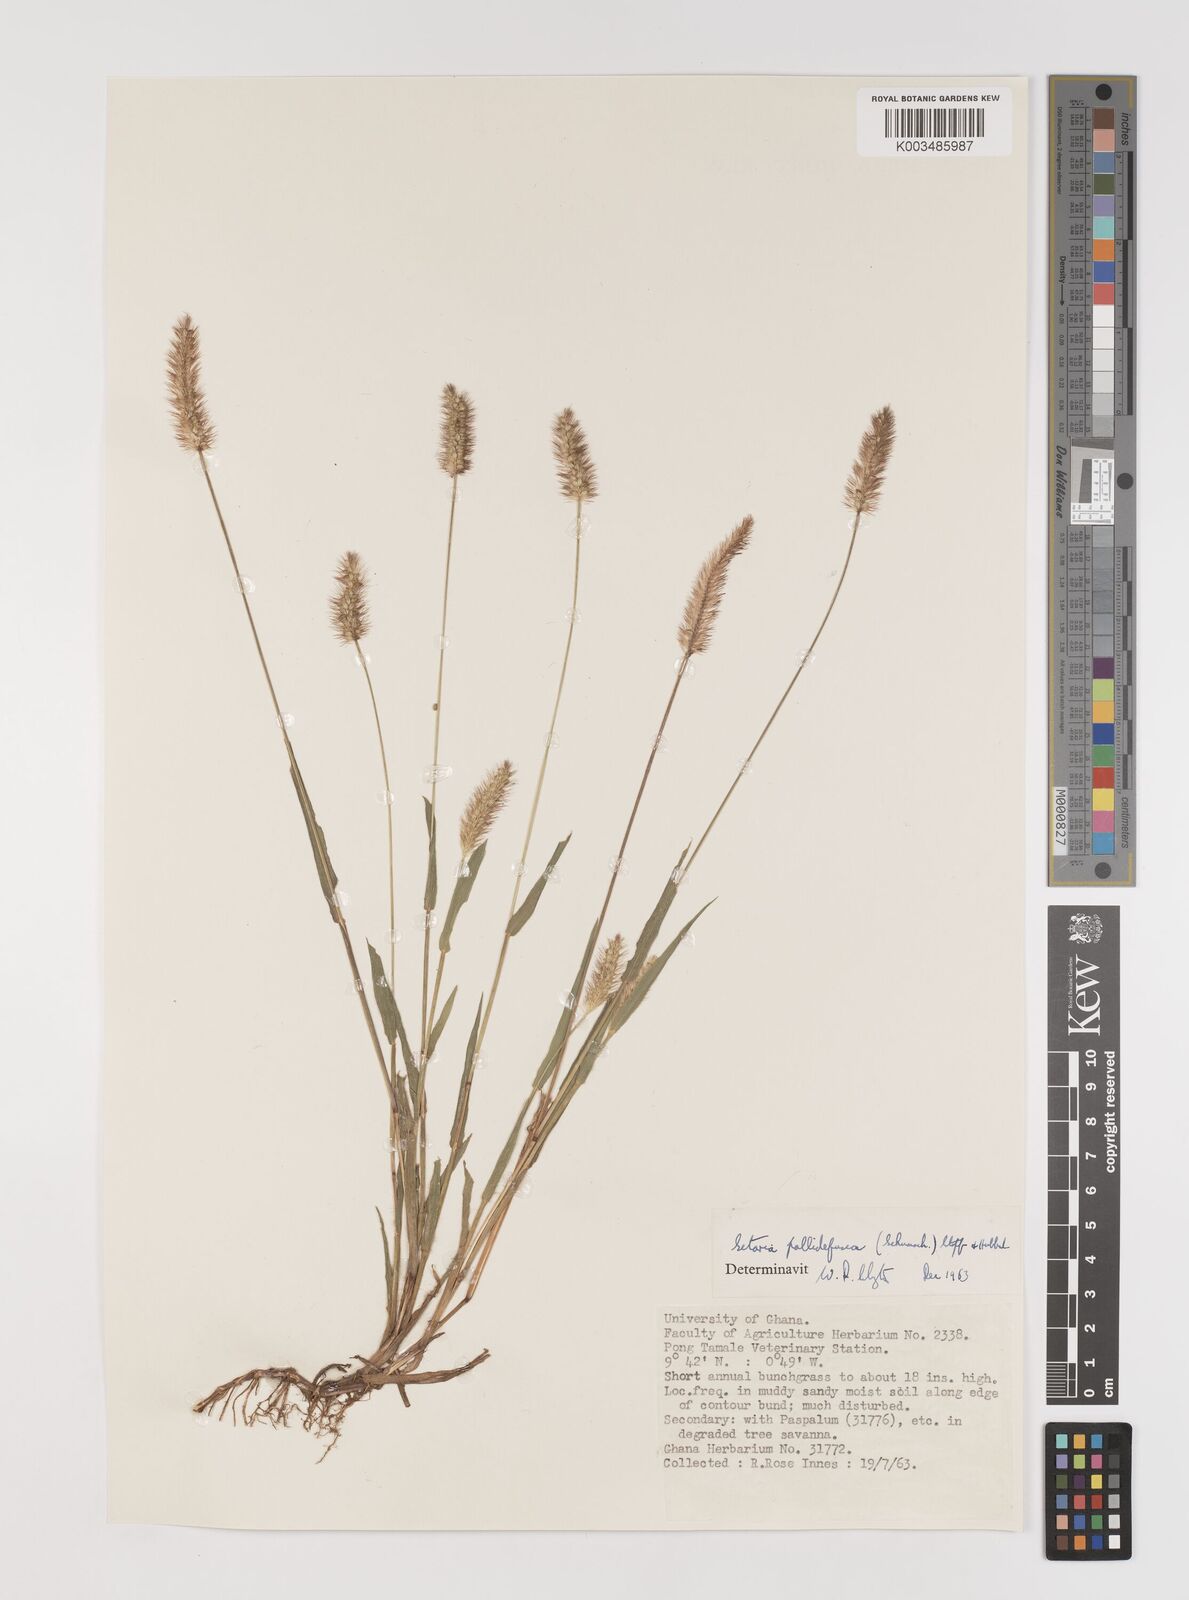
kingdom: Plantae
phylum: Tracheophyta
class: Liliopsida
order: Poales
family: Poaceae
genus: Setaria
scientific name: Setaria pumila
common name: Yellow bristle-grass
